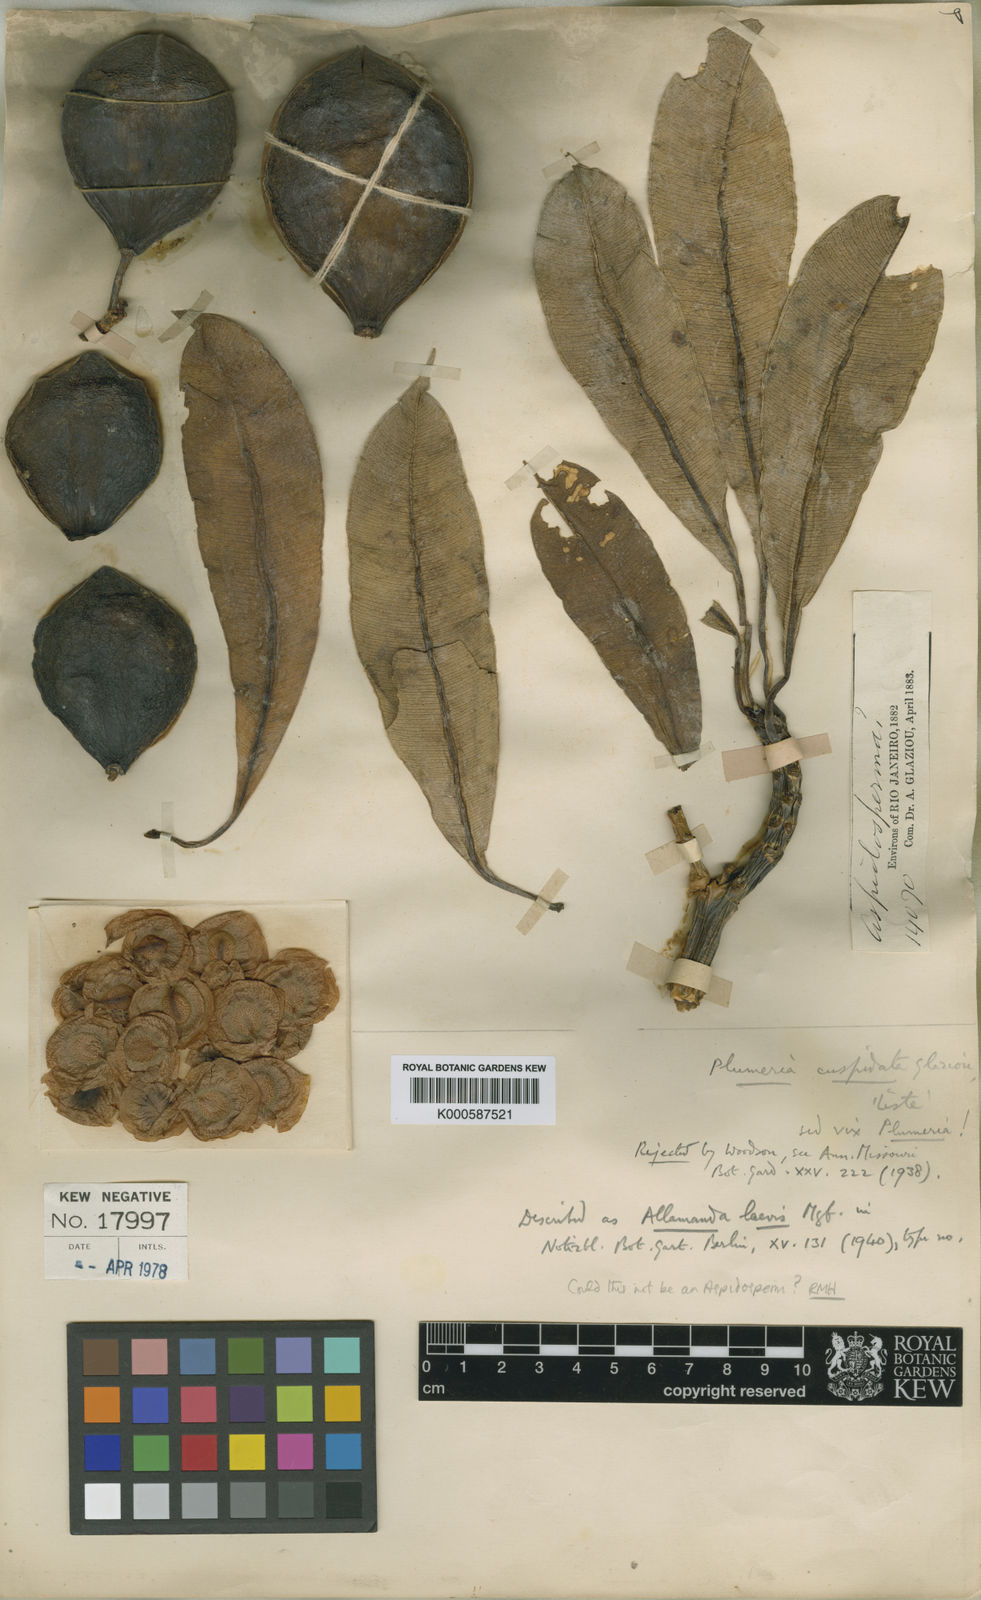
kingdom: Plantae
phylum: Tracheophyta
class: Magnoliopsida
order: Gentianales
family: Apocynaceae
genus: Allamanda
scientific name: Allamanda laevis
